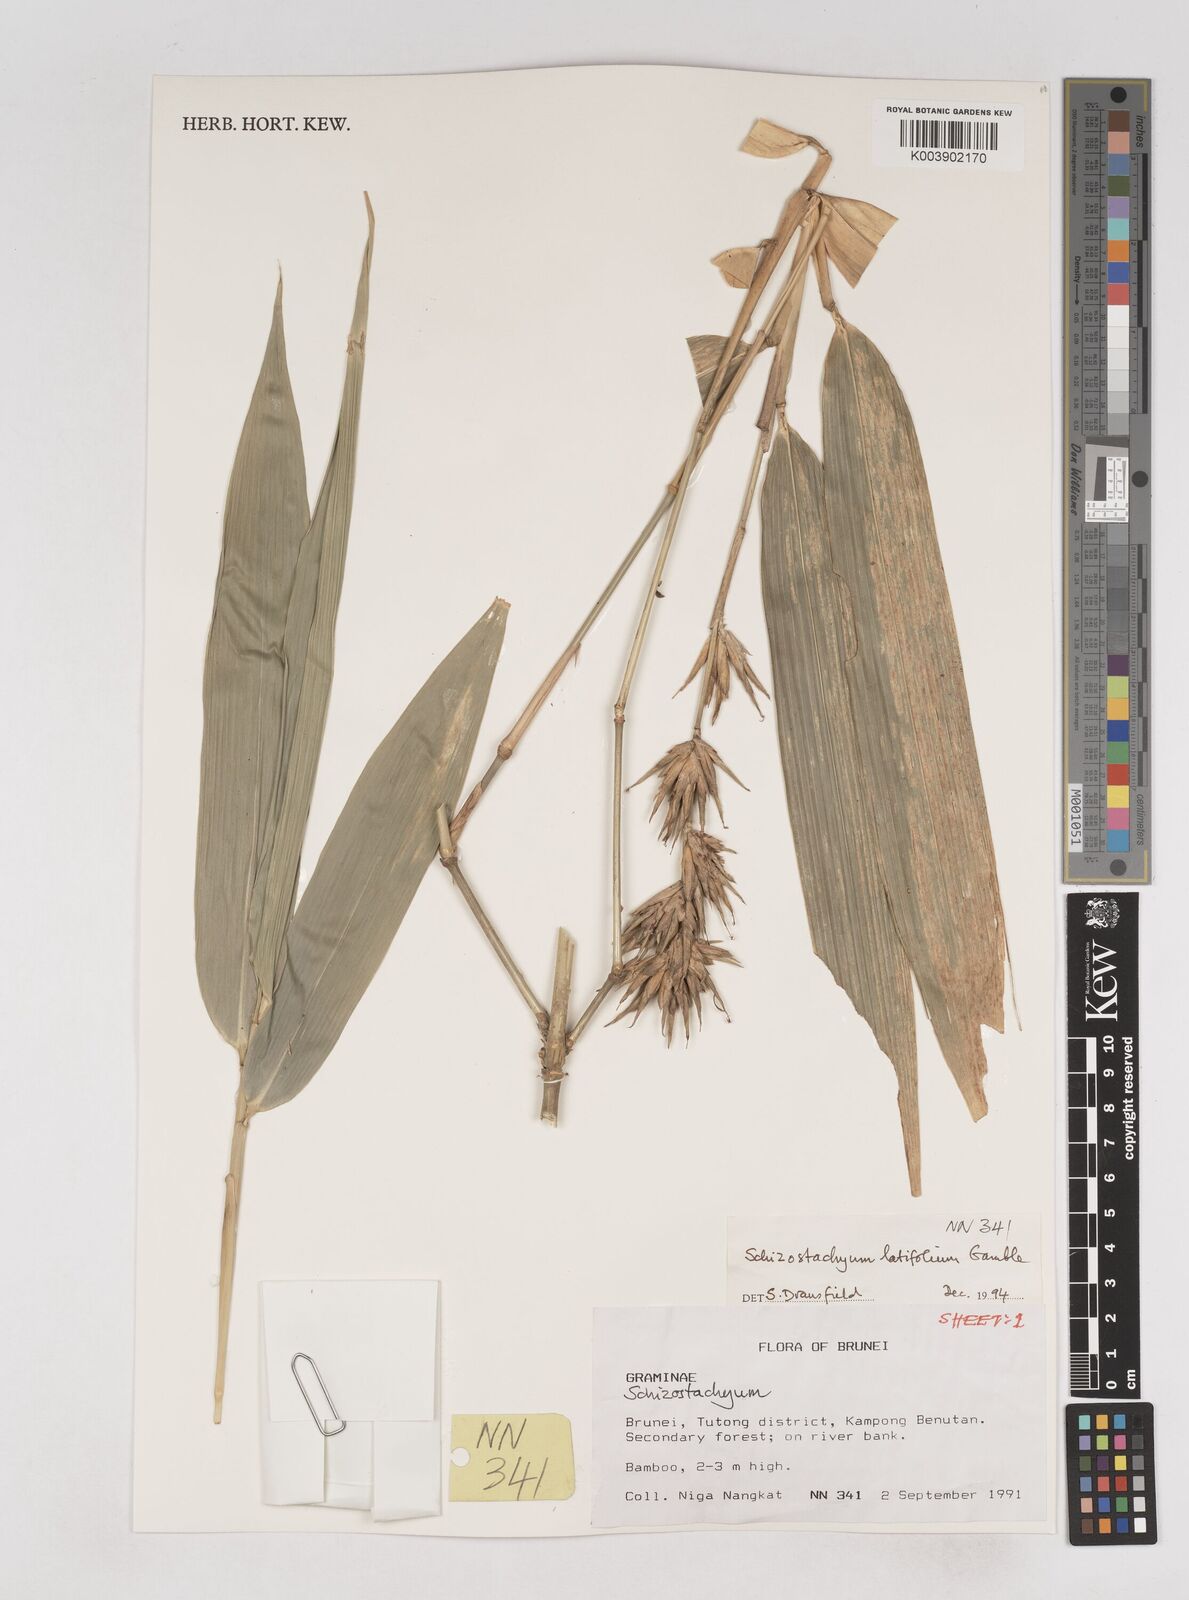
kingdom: Plantae
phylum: Tracheophyta
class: Liliopsida
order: Poales
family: Poaceae
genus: Schizostachyum
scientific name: Schizostachyum latifolium
